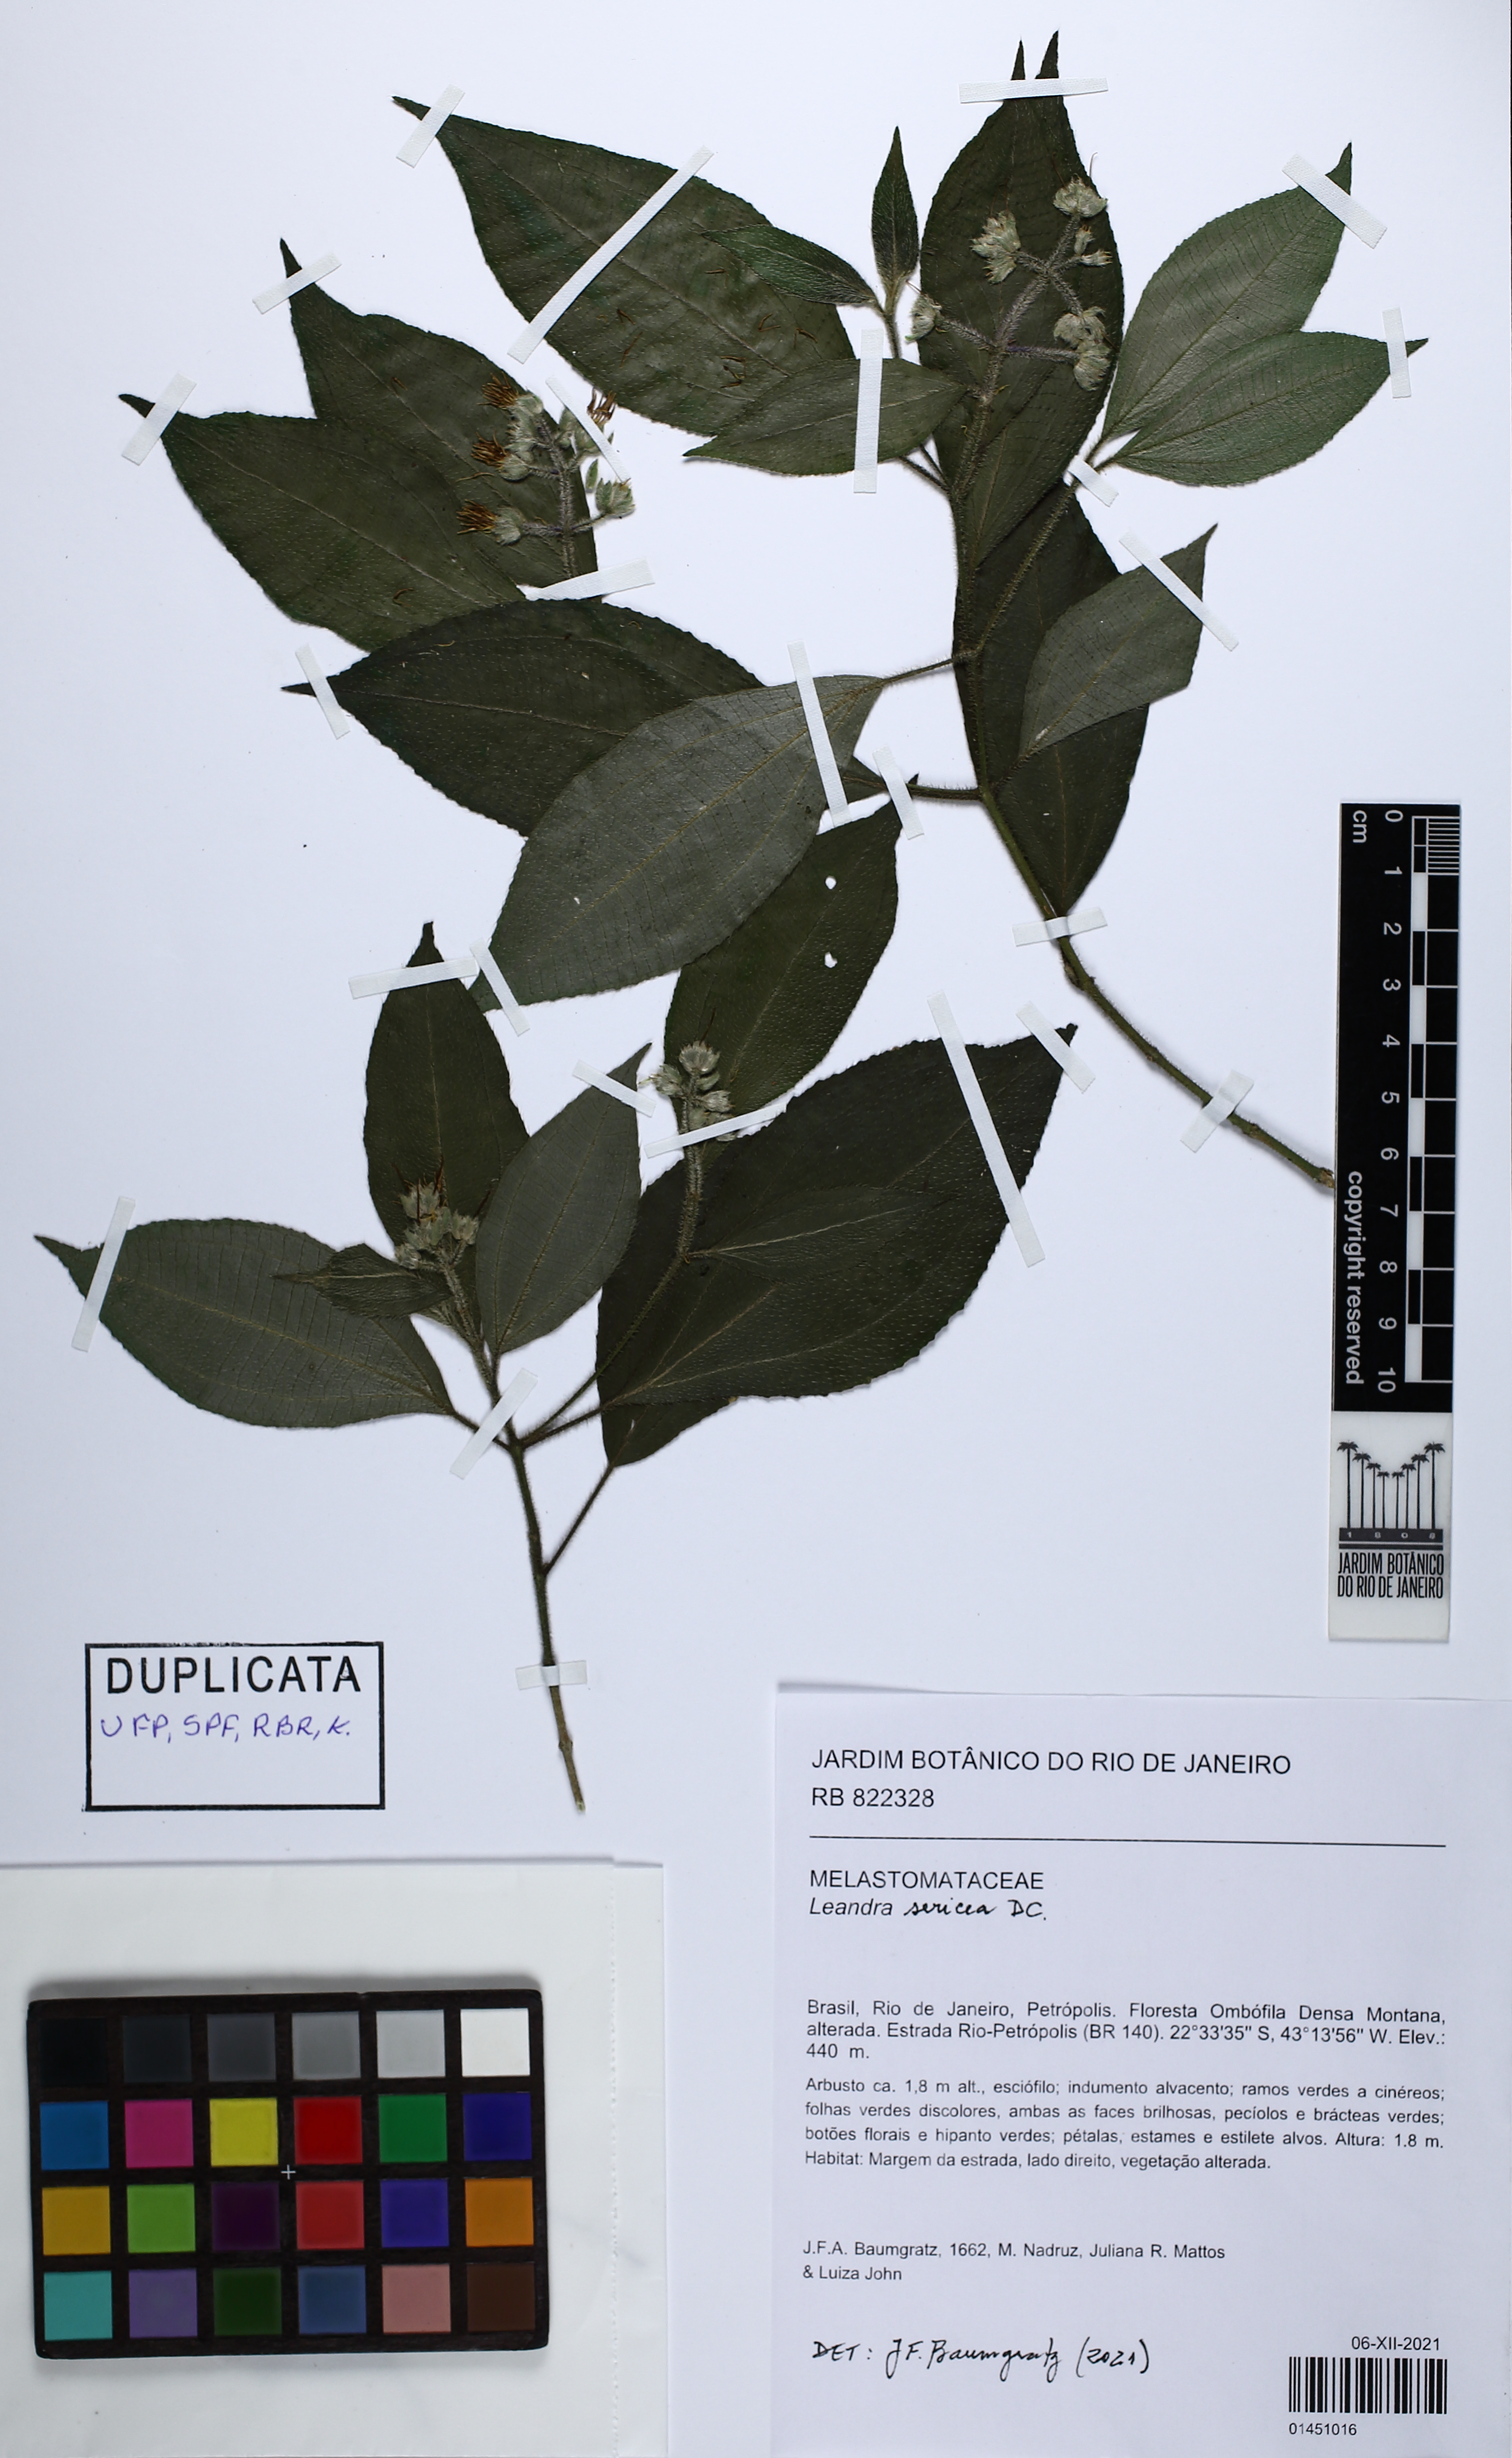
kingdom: Plantae
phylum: Tracheophyta
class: Magnoliopsida
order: Myrtales
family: Melastomataceae
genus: Miconia
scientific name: Miconia raddii
